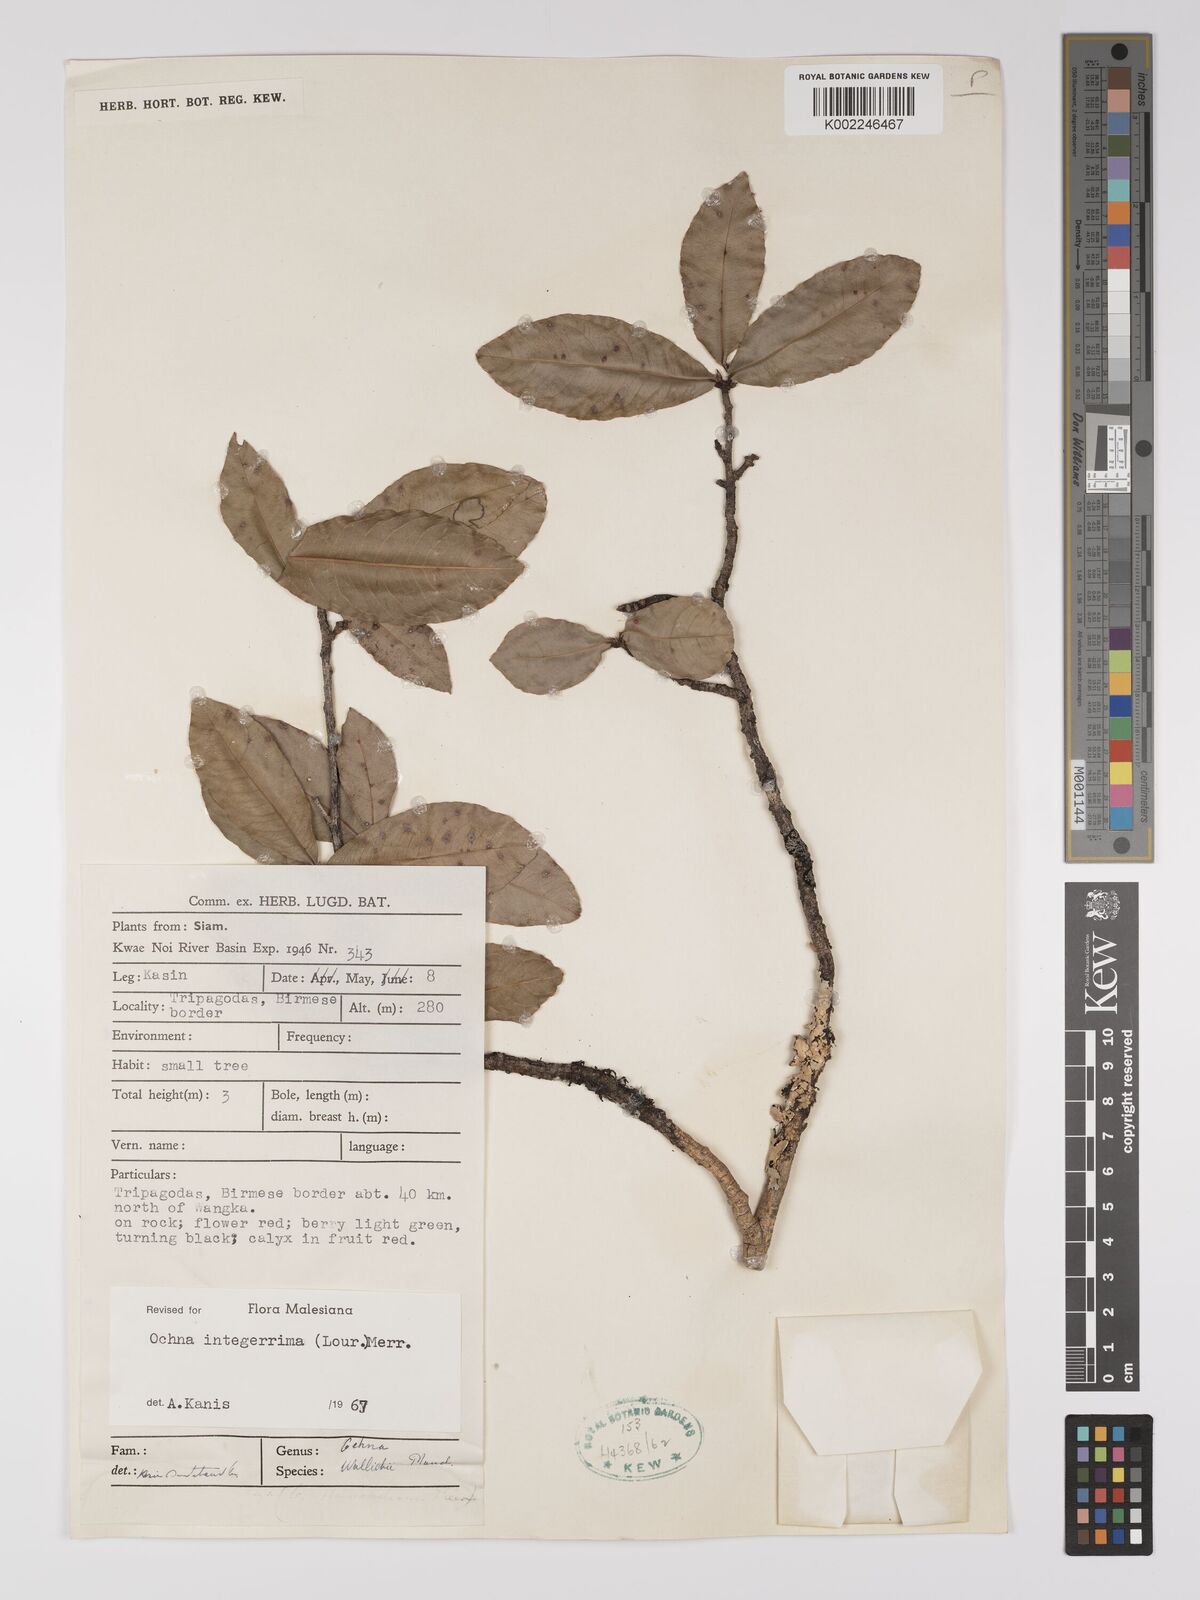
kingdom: Plantae
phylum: Tracheophyta
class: Magnoliopsida
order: Malpighiales
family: Ochnaceae
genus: Ochna
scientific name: Ochna integerrima
